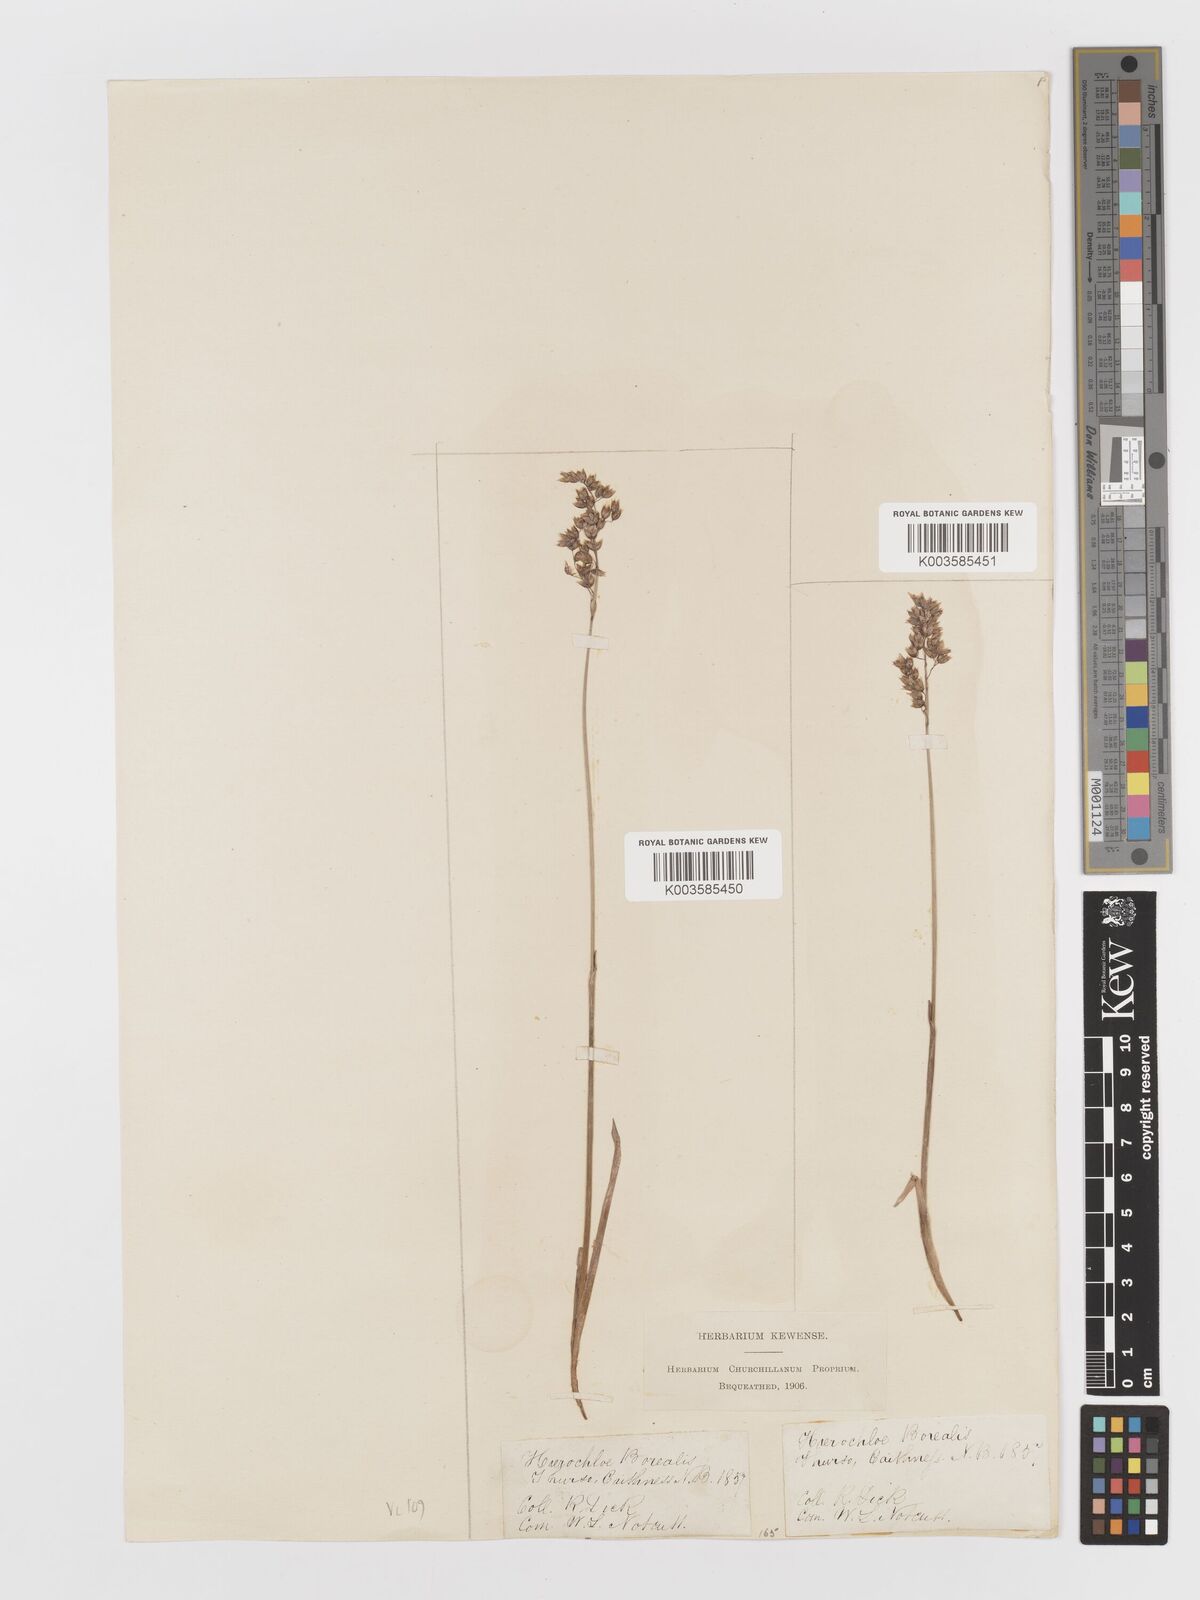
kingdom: Plantae
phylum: Tracheophyta
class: Liliopsida
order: Poales
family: Poaceae
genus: Anthoxanthum
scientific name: Anthoxanthum nitens
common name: Holy grass
